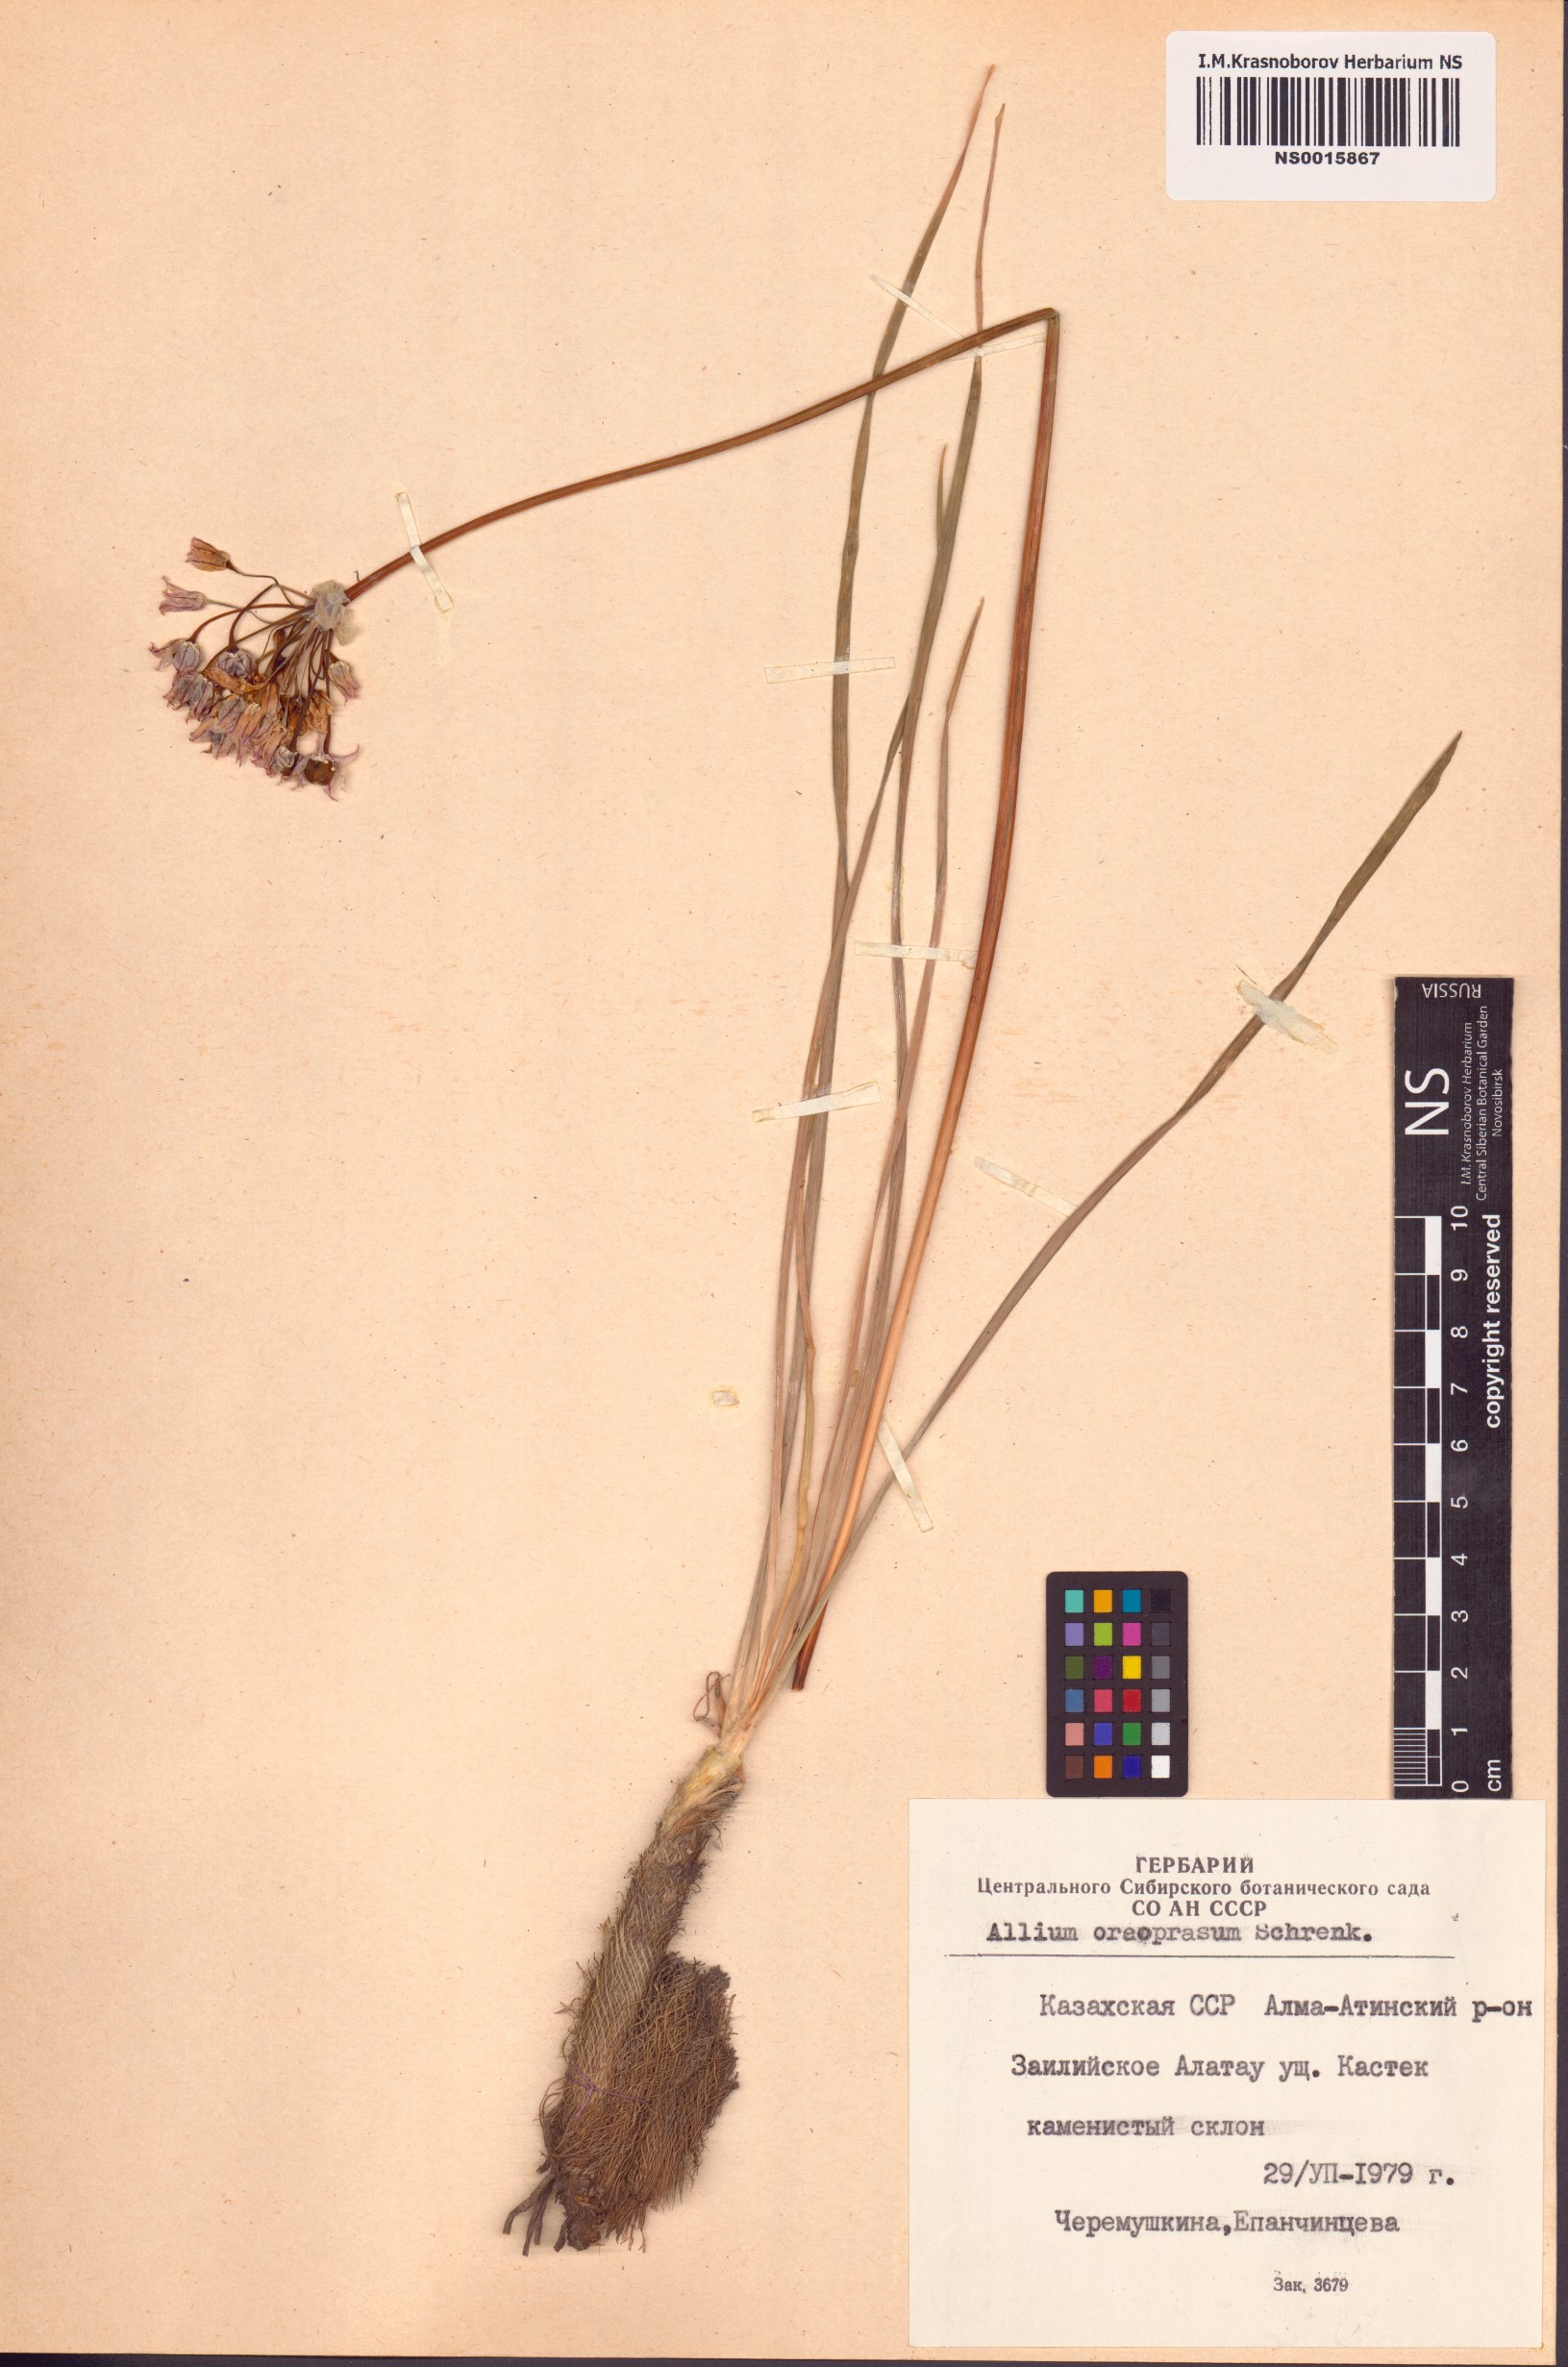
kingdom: Plantae
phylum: Tracheophyta
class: Liliopsida
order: Asparagales
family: Amaryllidaceae
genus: Allium
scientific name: Allium oreoprasum
